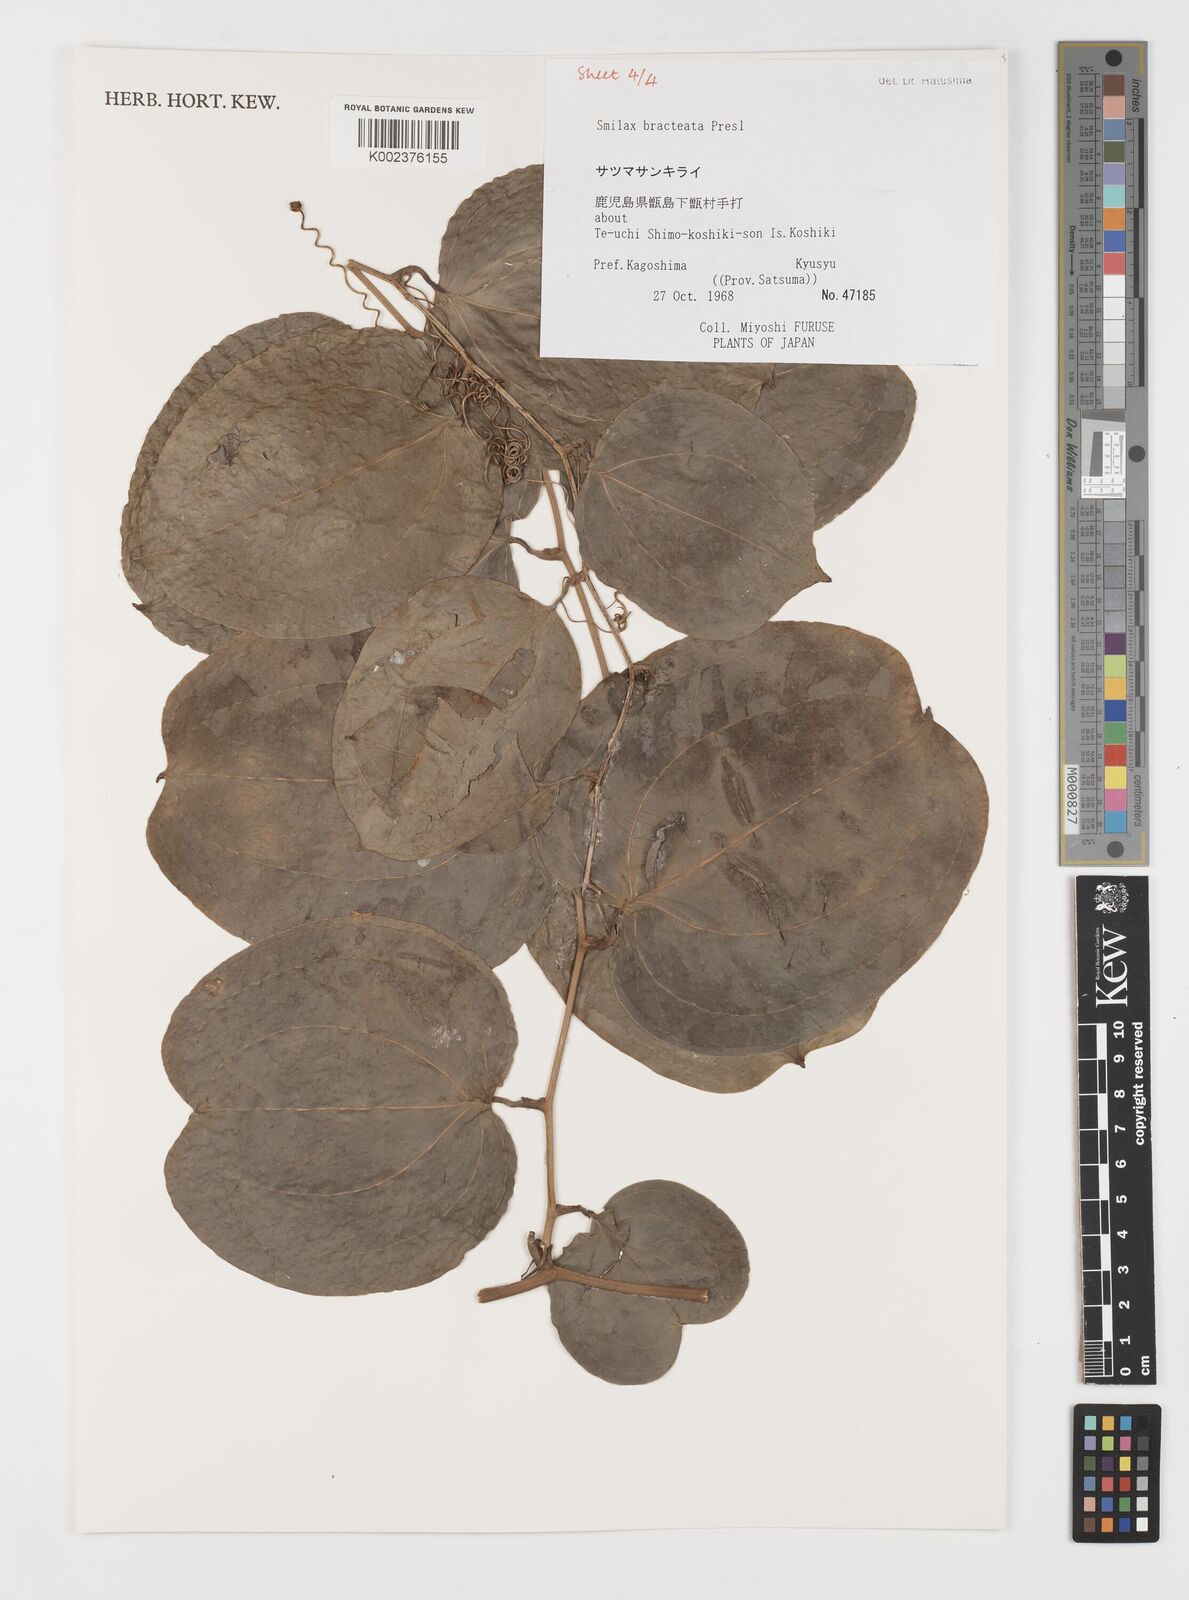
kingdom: Plantae
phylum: Tracheophyta
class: Liliopsida
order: Liliales
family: Smilacaceae
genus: Smilax
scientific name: Smilax bracteata
